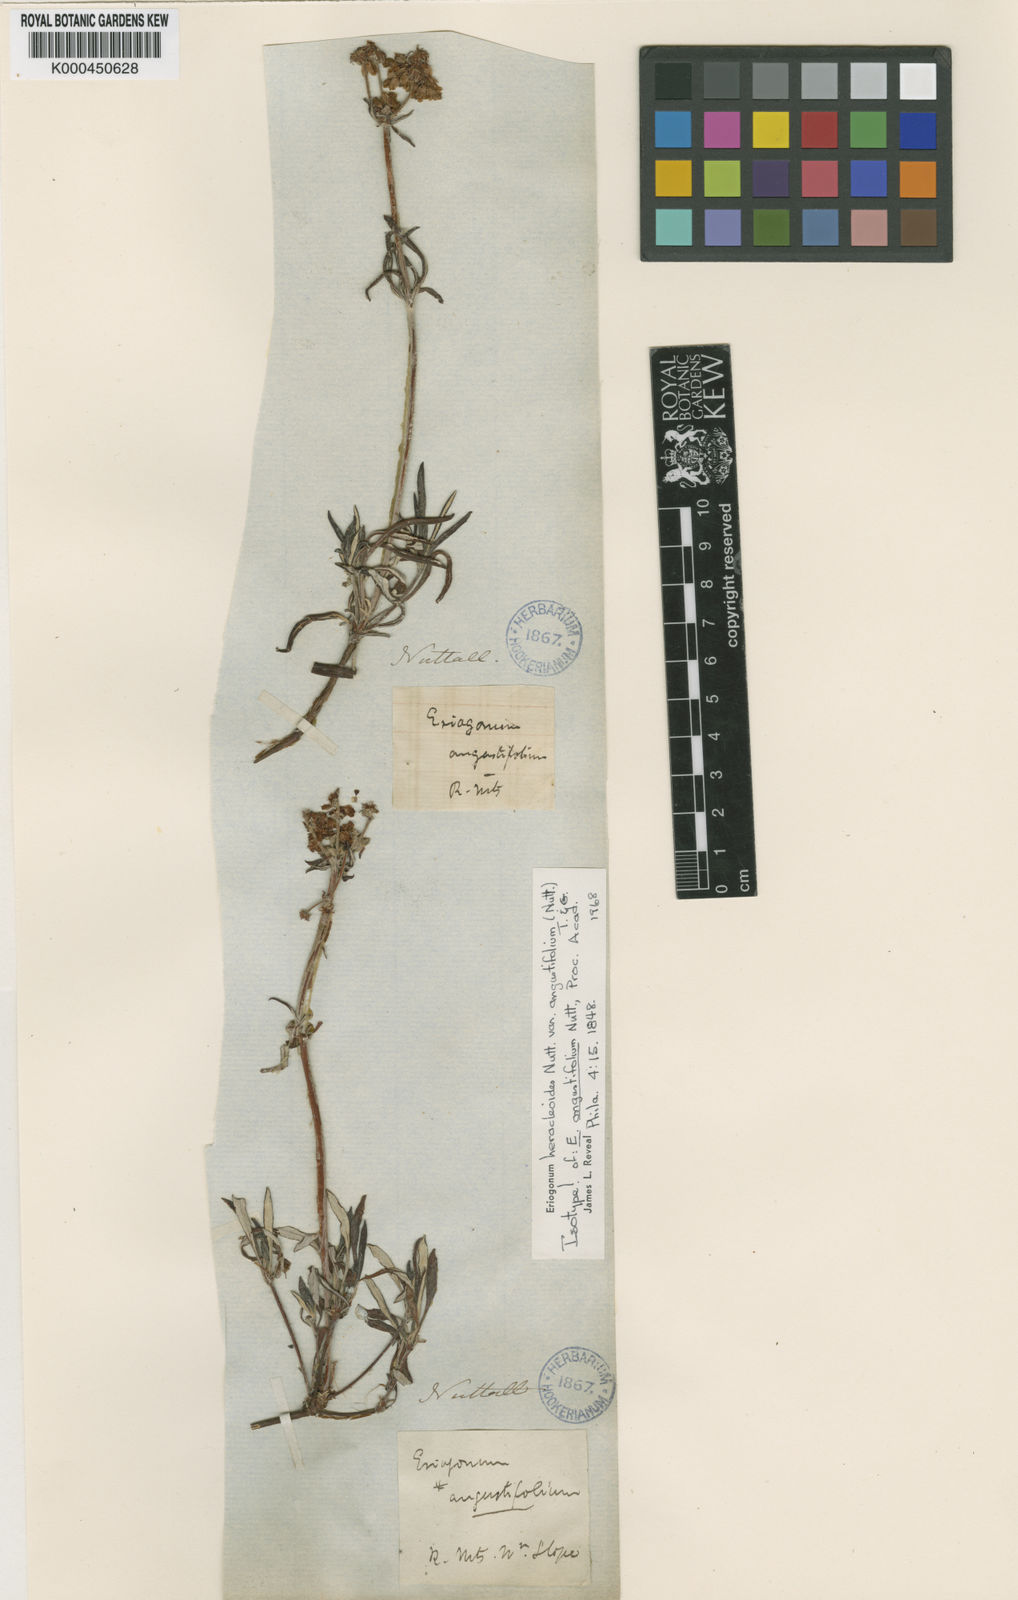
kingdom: Plantae
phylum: Tracheophyta
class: Magnoliopsida
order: Caryophyllales
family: Polygonaceae
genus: Eriogonum
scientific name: Eriogonum heracleoides
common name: Wyeth's buckwheat
